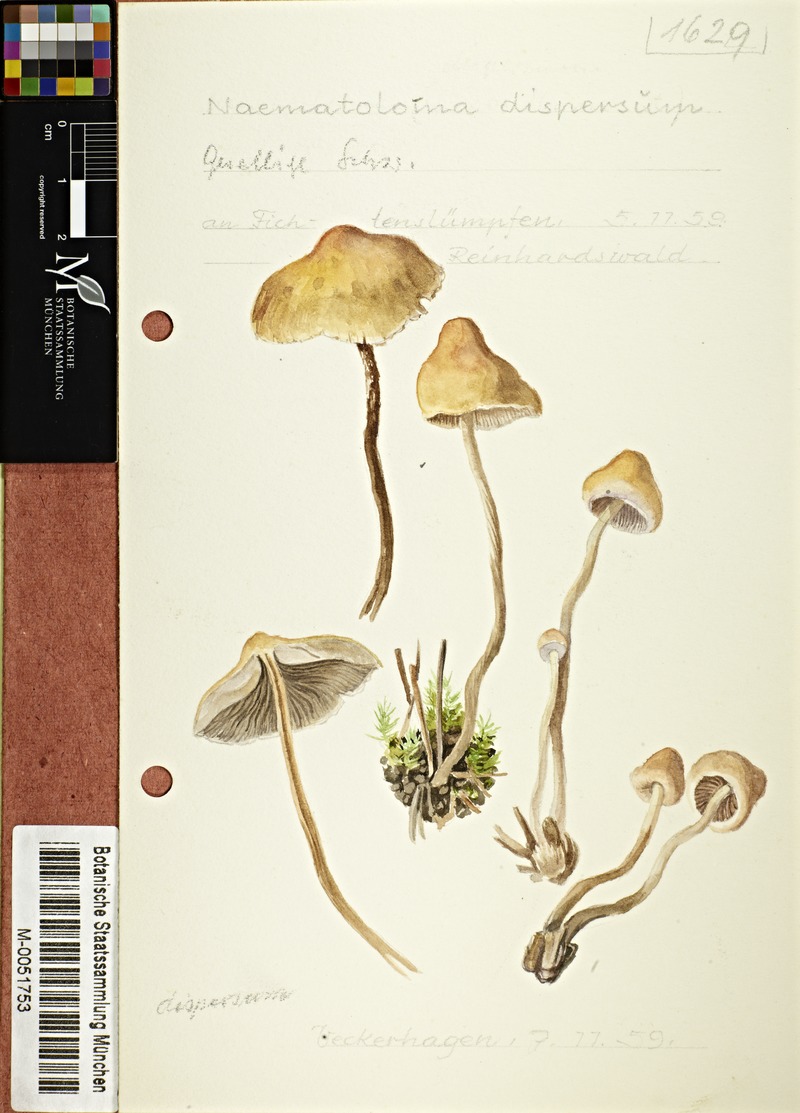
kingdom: Fungi
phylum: Basidiomycota
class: Agaricomycetes
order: Agaricales
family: Strophariaceae
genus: Hypholoma
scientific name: Hypholoma marginatum
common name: Snakeskin brownie
